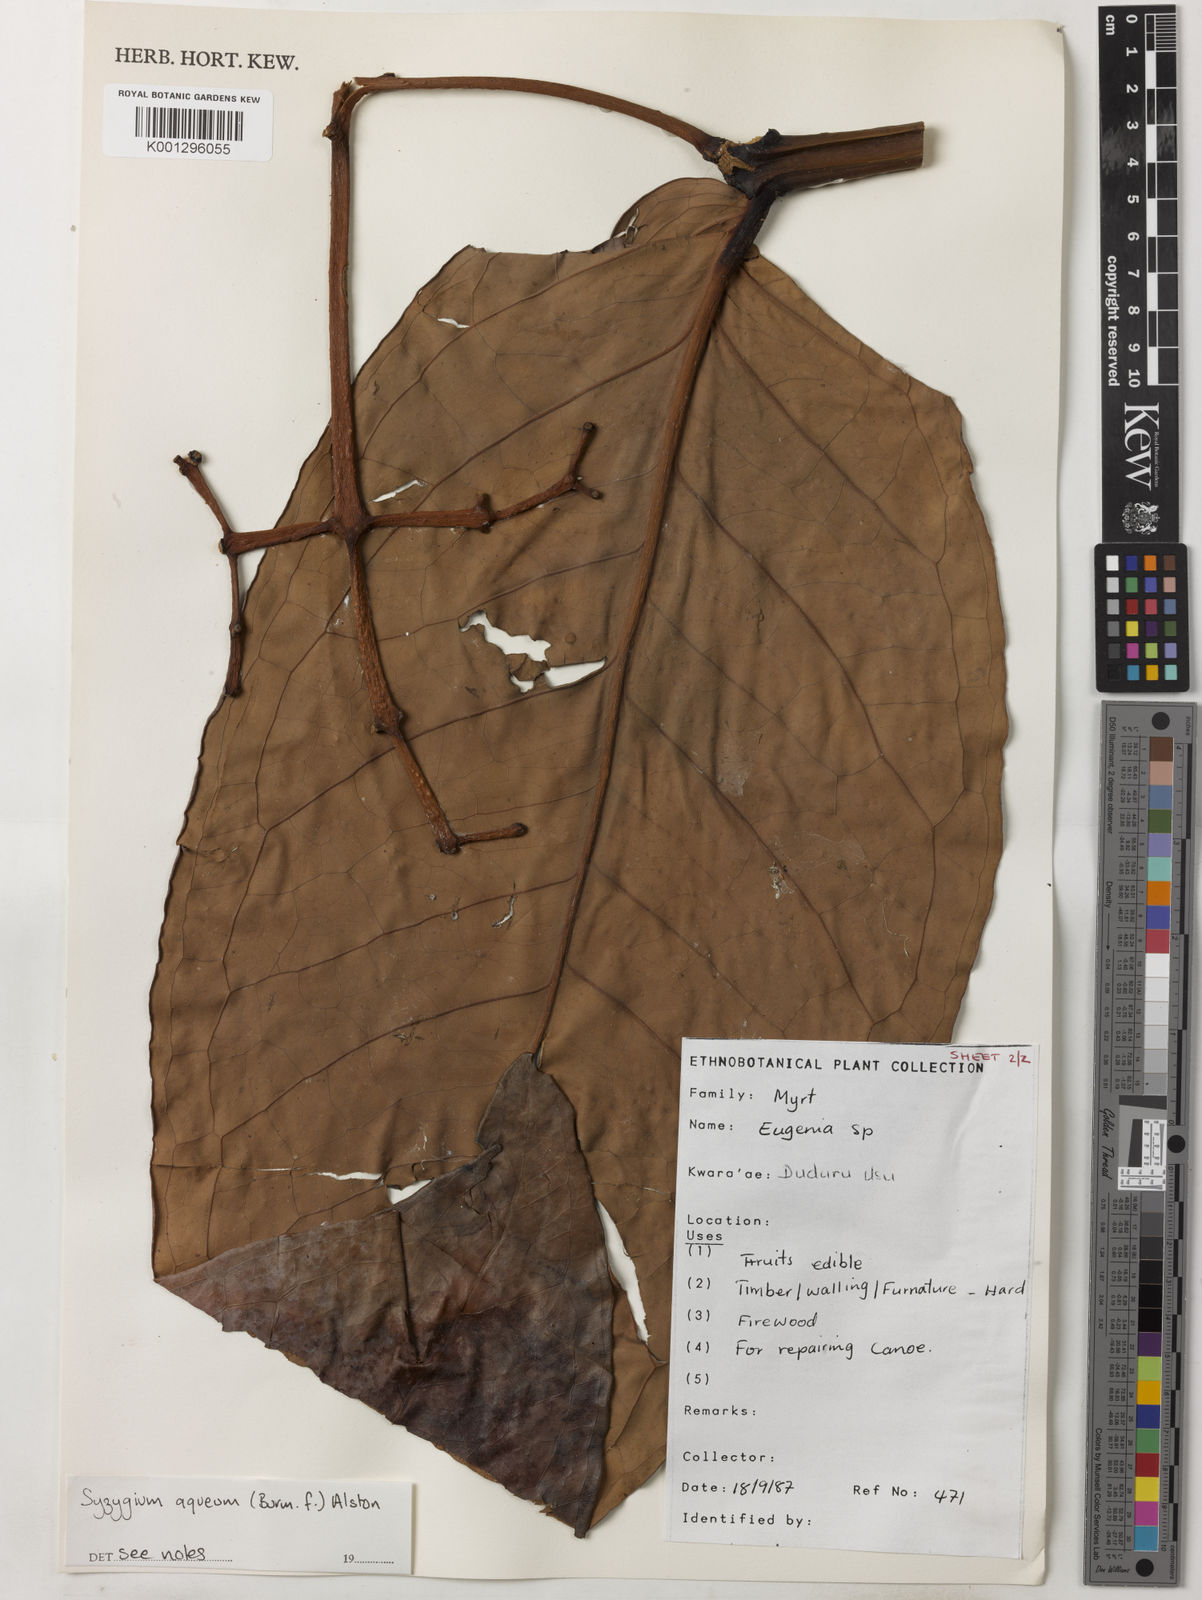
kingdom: Plantae
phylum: Tracheophyta
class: Magnoliopsida
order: Myrtales
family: Myrtaceae
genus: Syzygium
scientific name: Syzygium aqueum
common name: Water-apple
